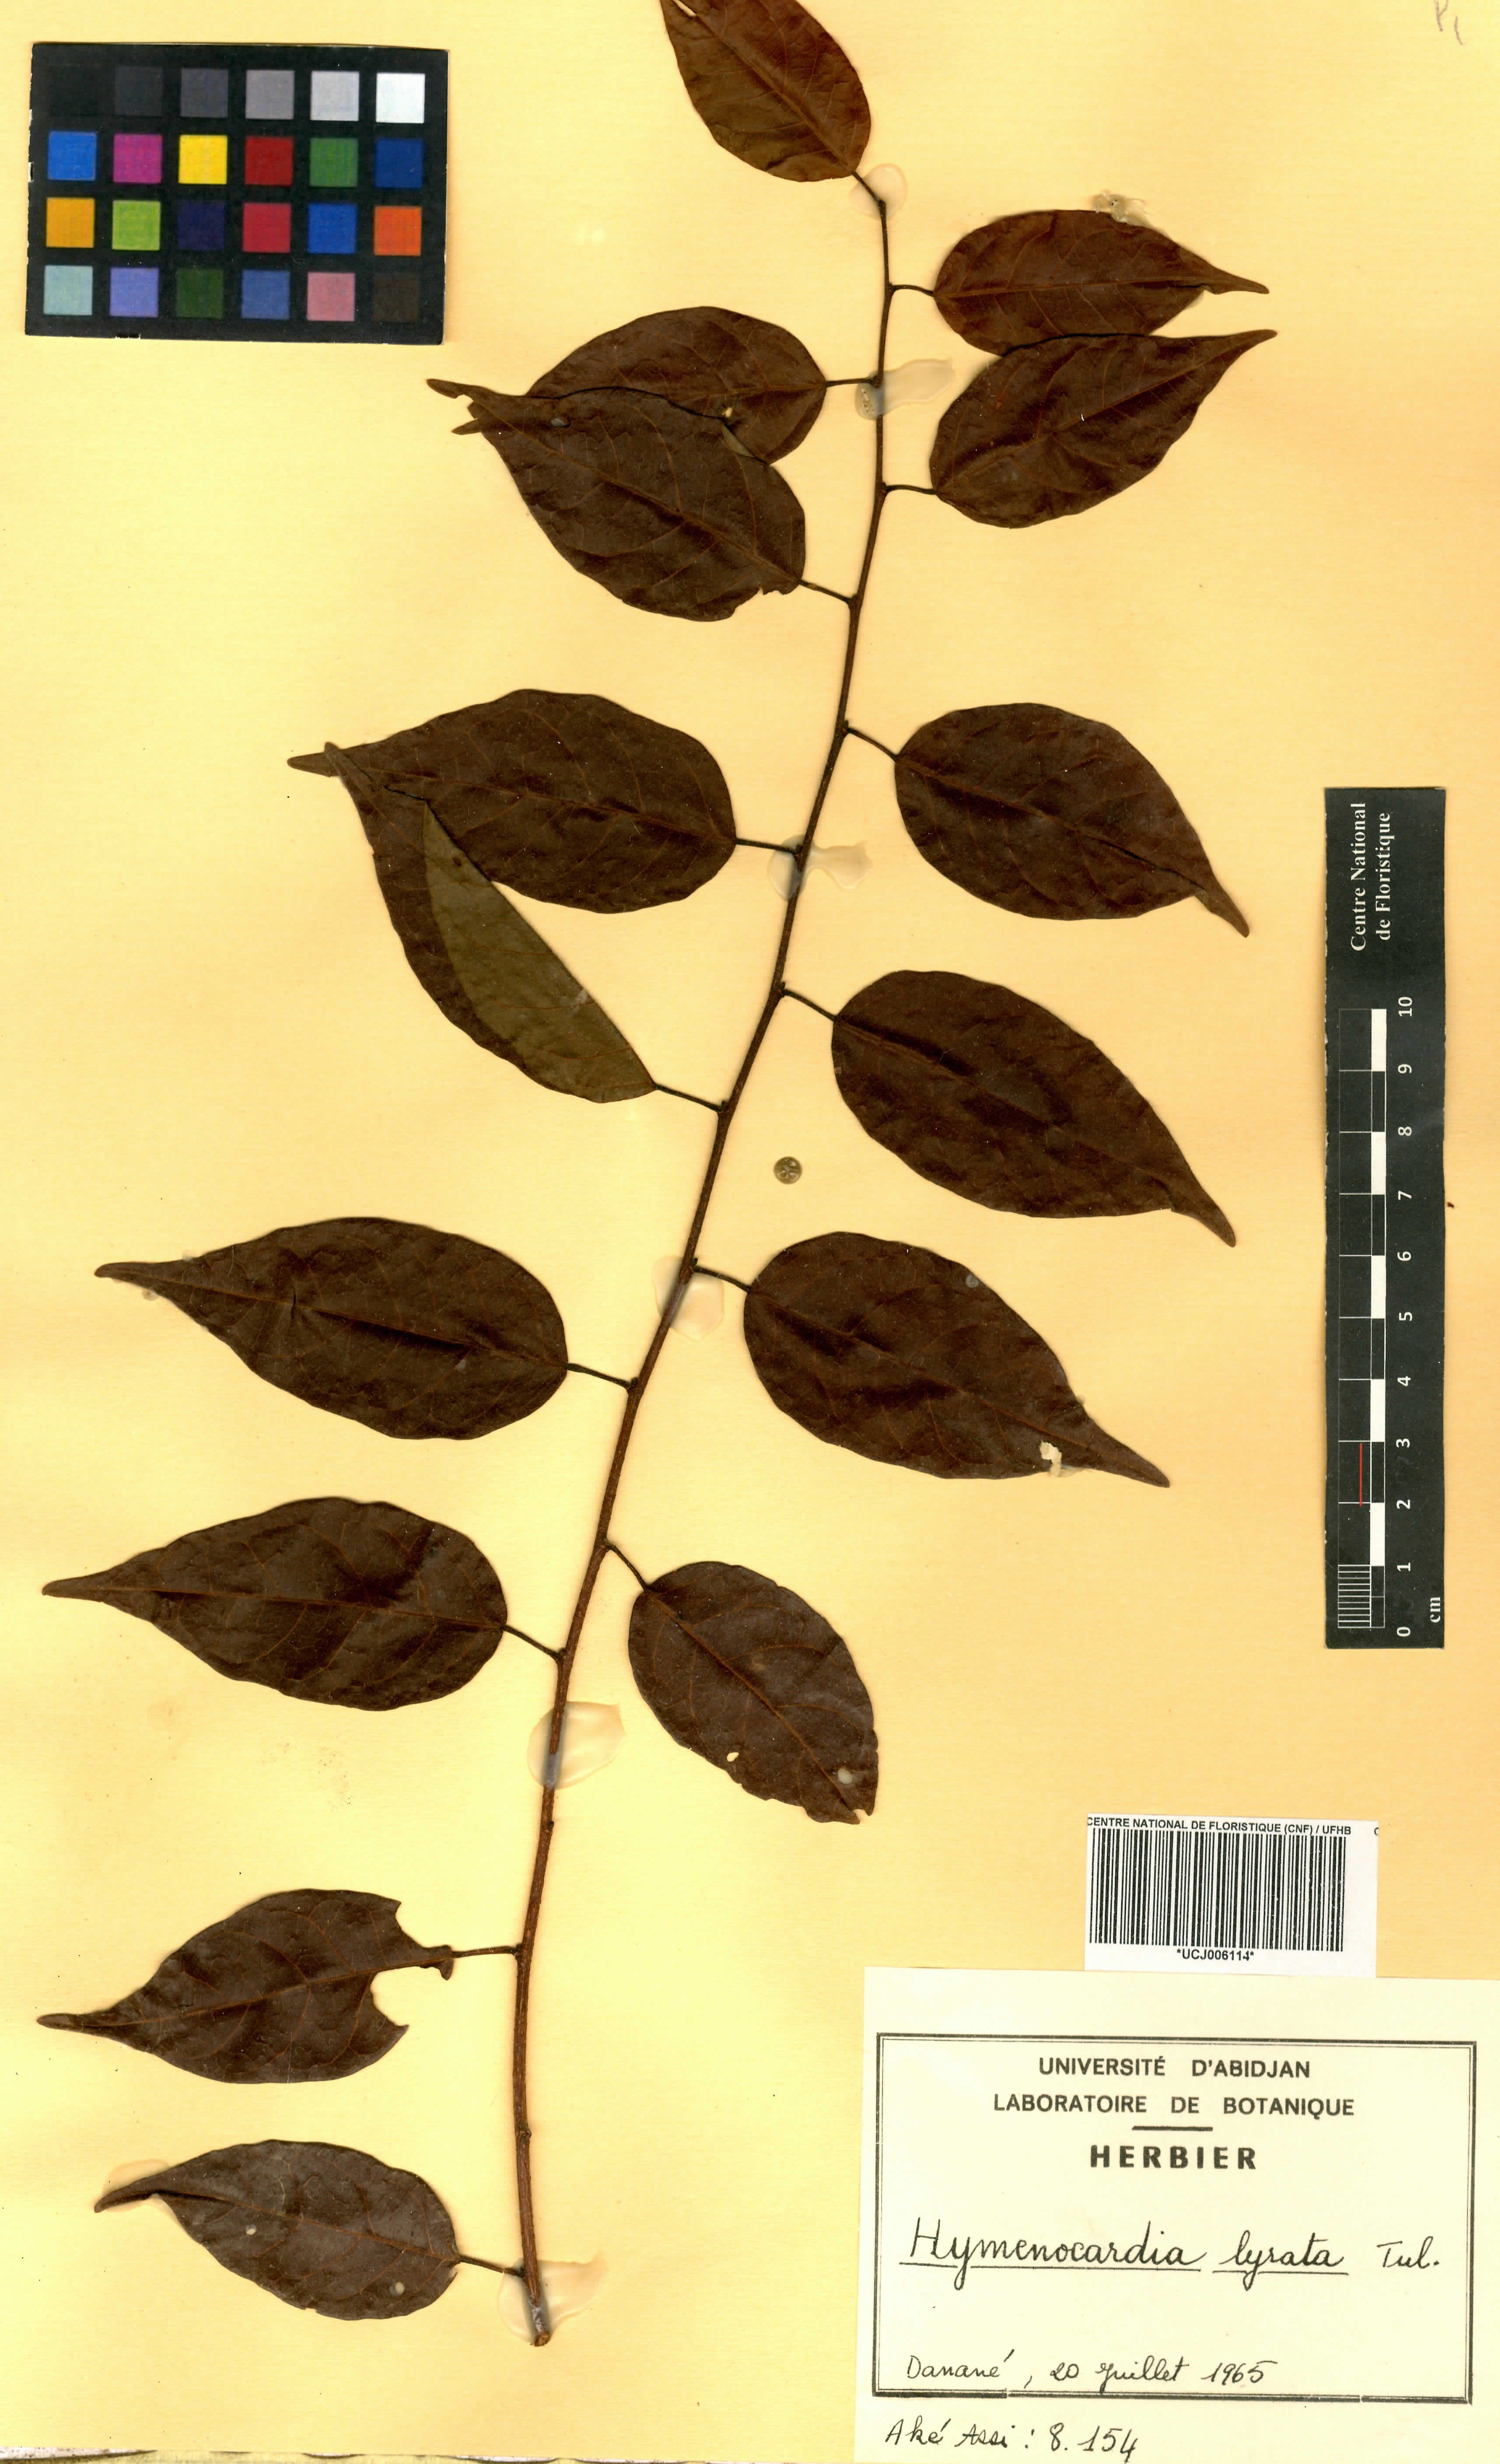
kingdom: Plantae
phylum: Tracheophyta
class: Magnoliopsida
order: Malpighiales
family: Phyllanthaceae
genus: Hymenocardia
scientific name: Hymenocardia lyrata
